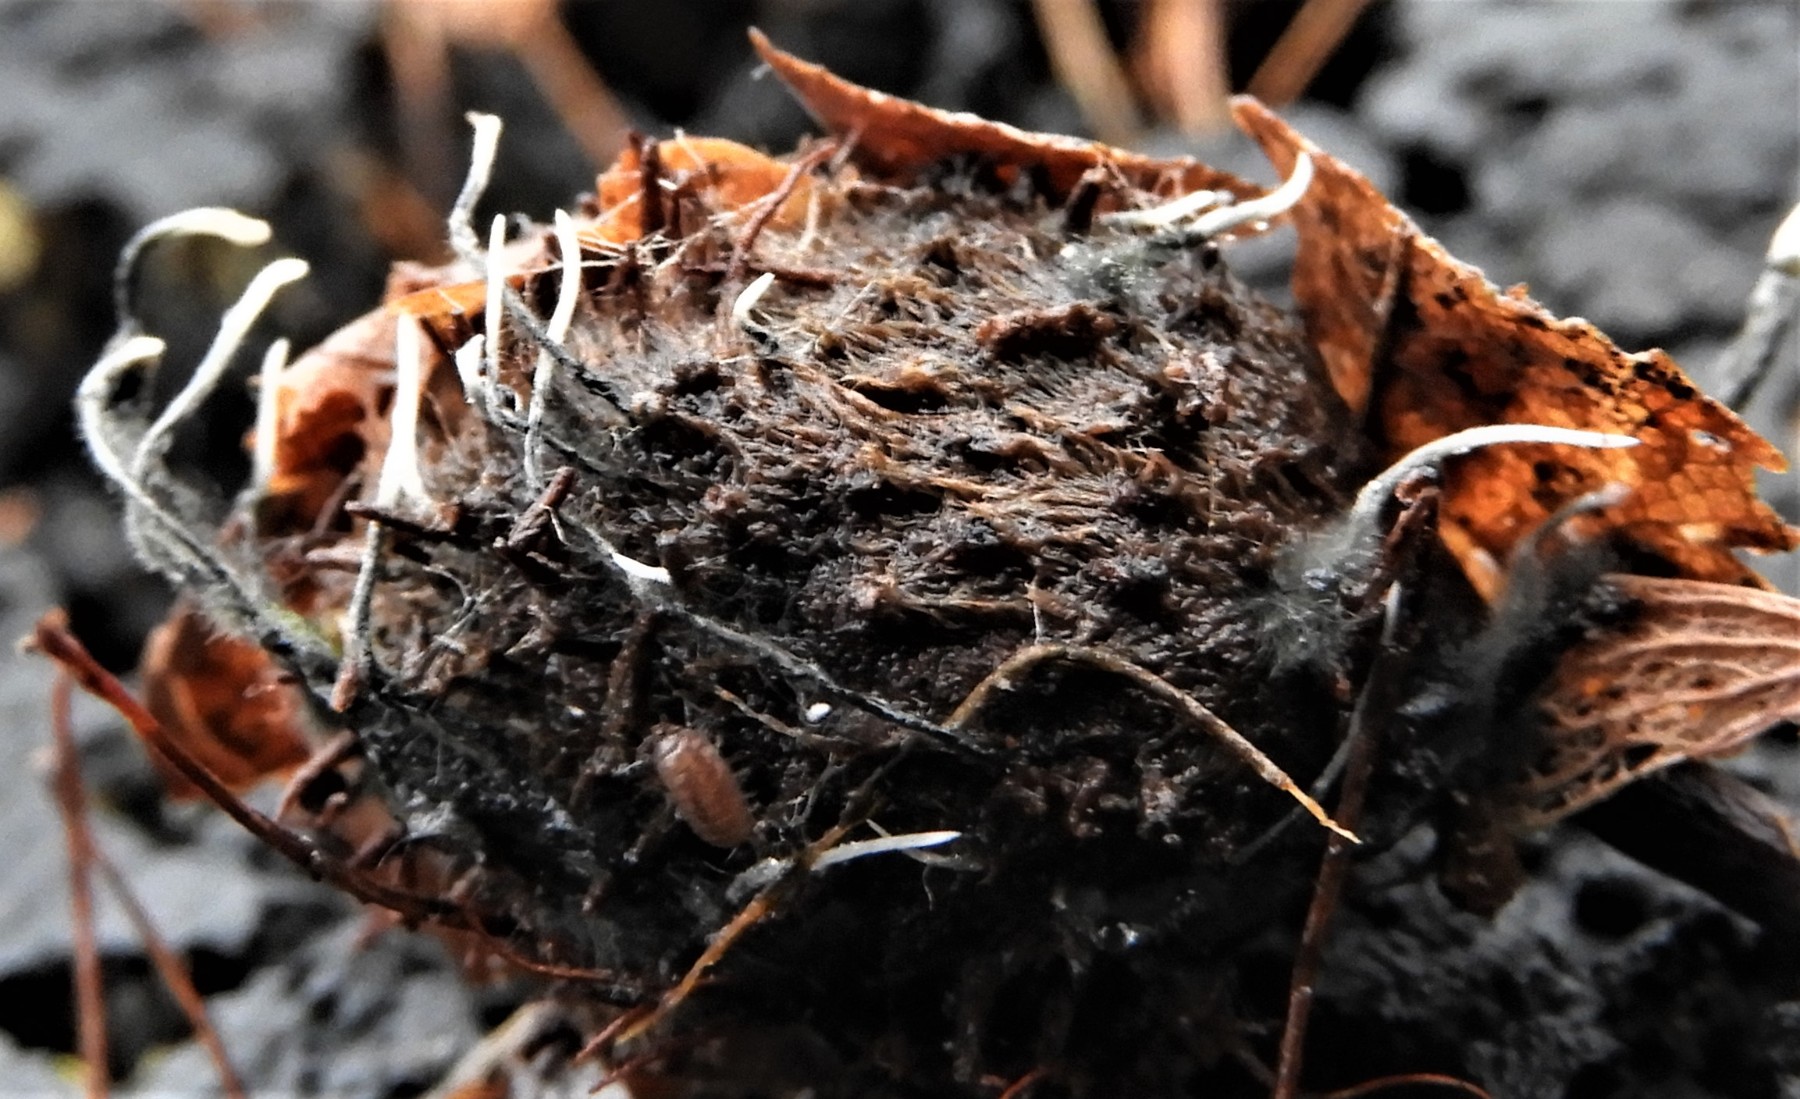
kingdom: Fungi
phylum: Ascomycota
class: Sordariomycetes
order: Xylariales
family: Xylariaceae
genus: Xylaria
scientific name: Xylaria carpophila
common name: bogskål-stødsvamp
